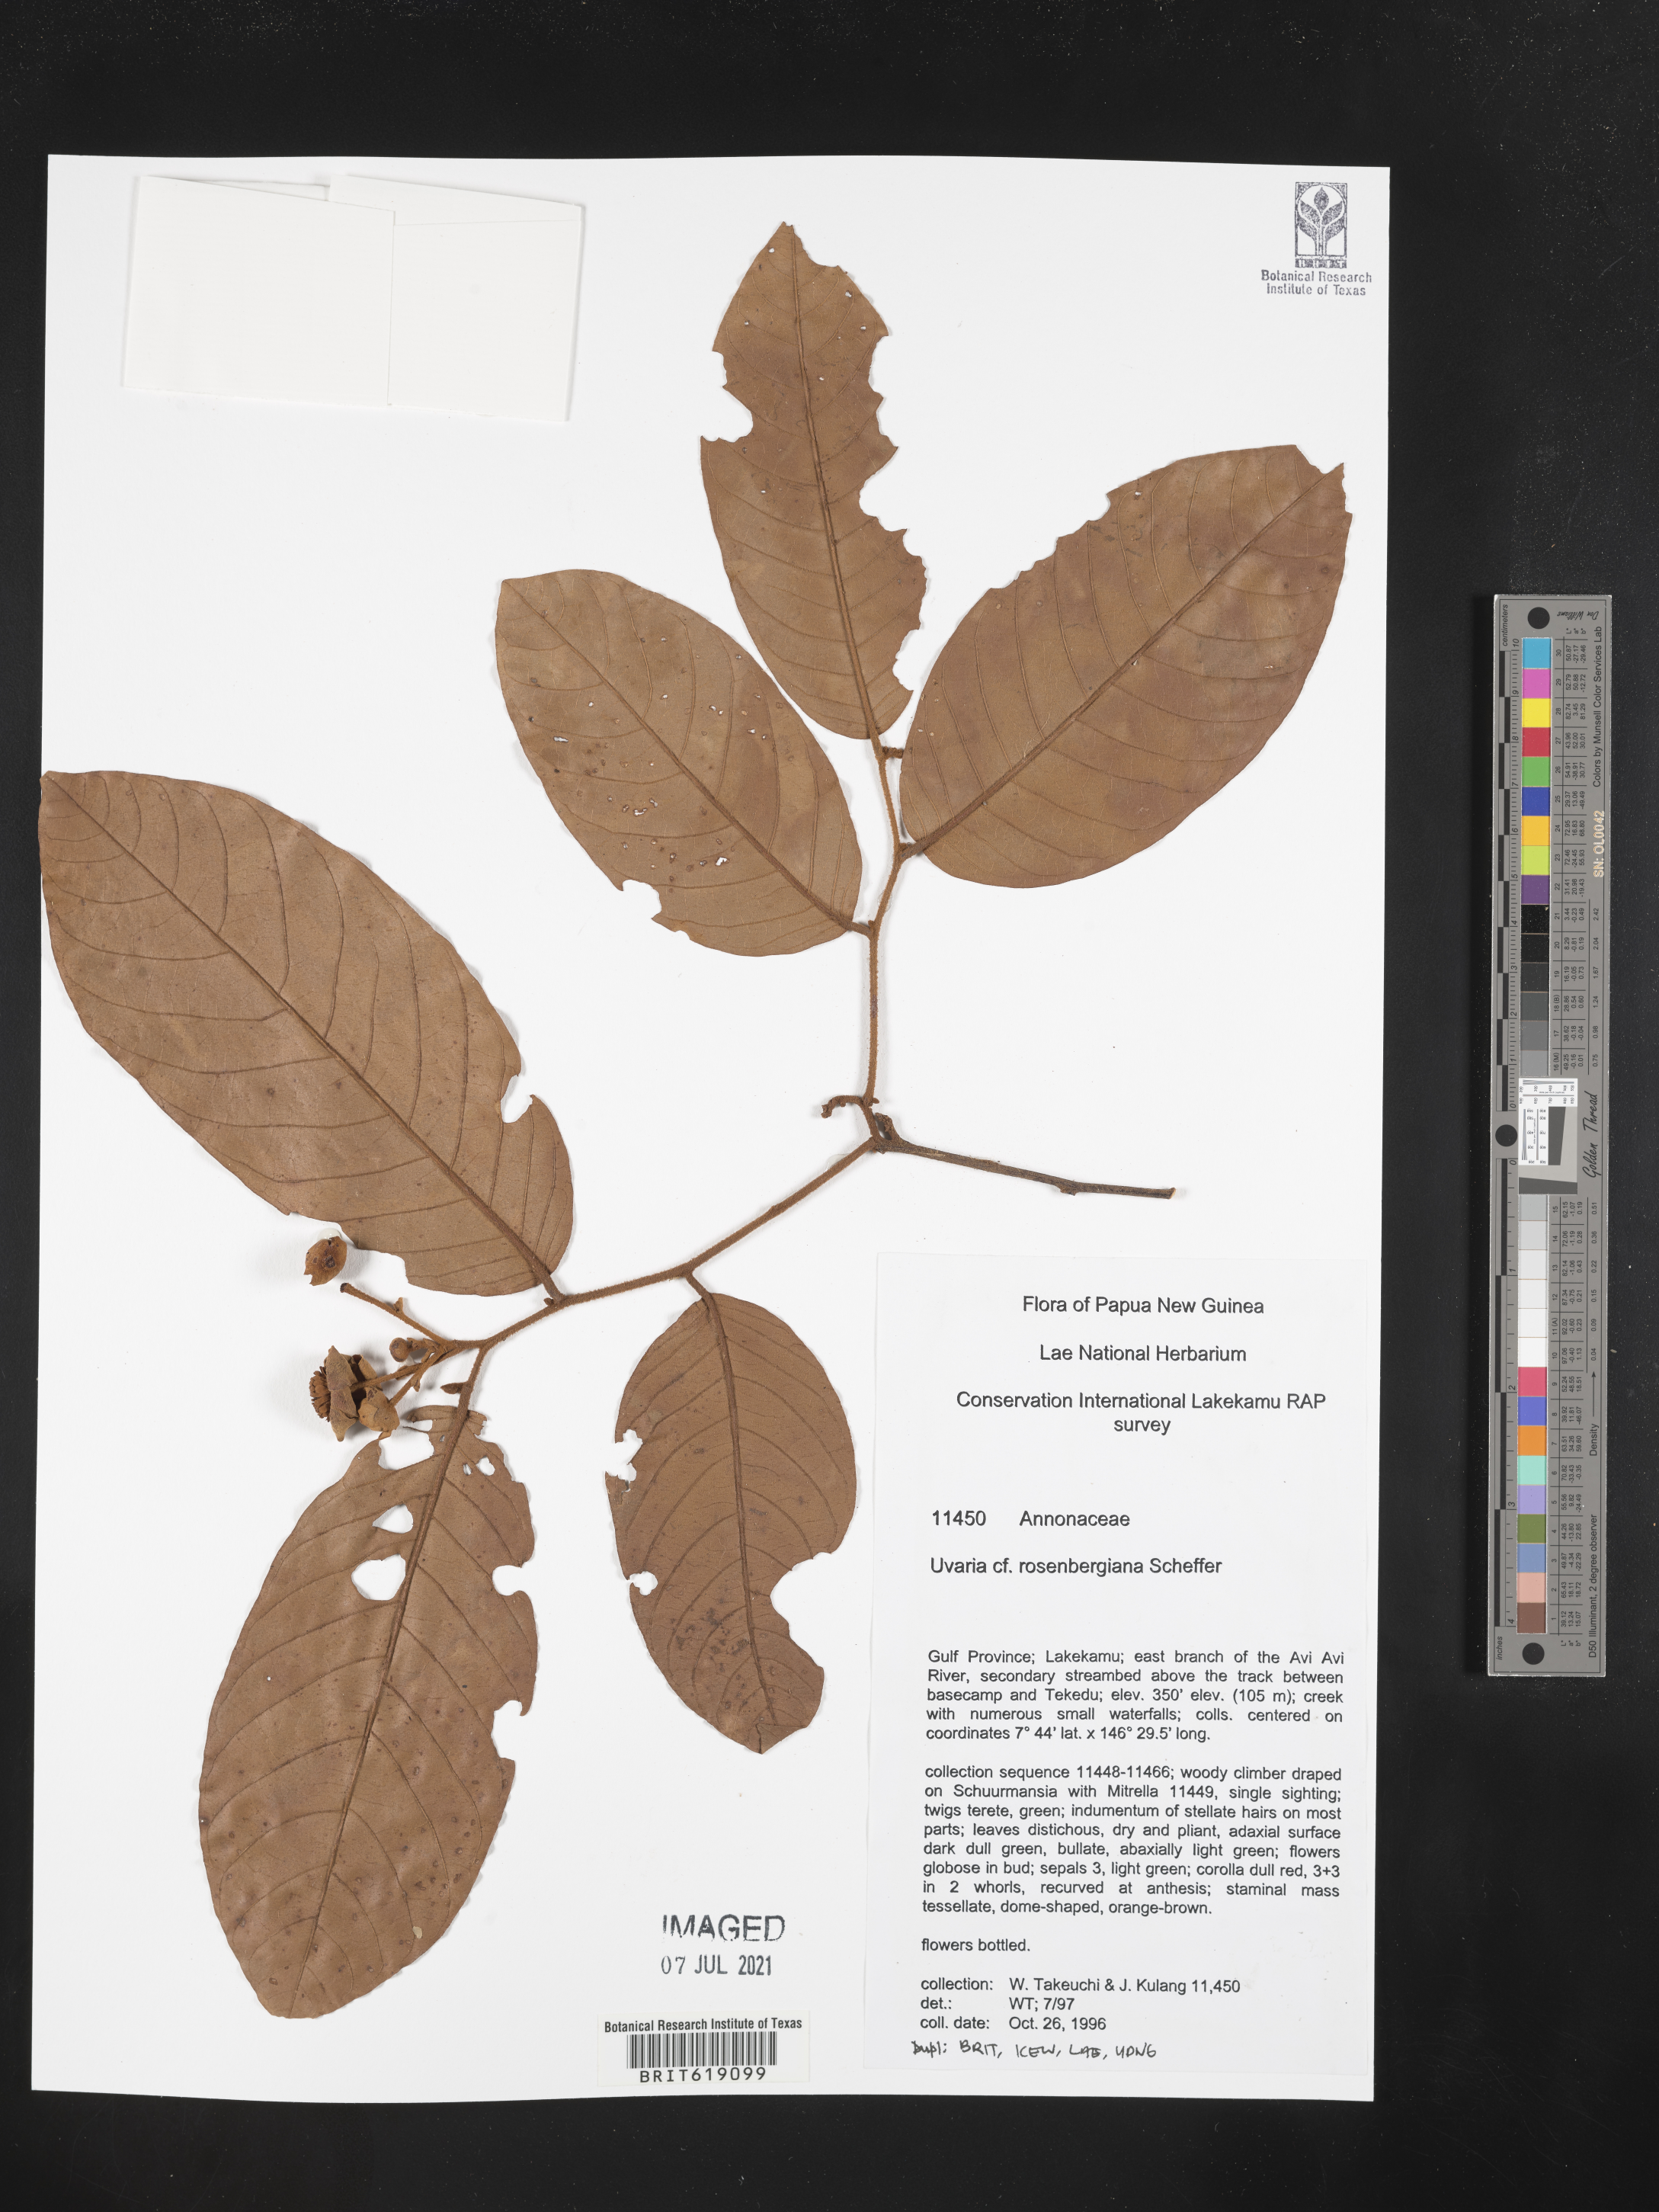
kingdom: Plantae
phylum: Tracheophyta
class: Magnoliopsida
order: Magnoliales
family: Annonaceae
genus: Uvaria
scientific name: Uvaria rosenbergiana
